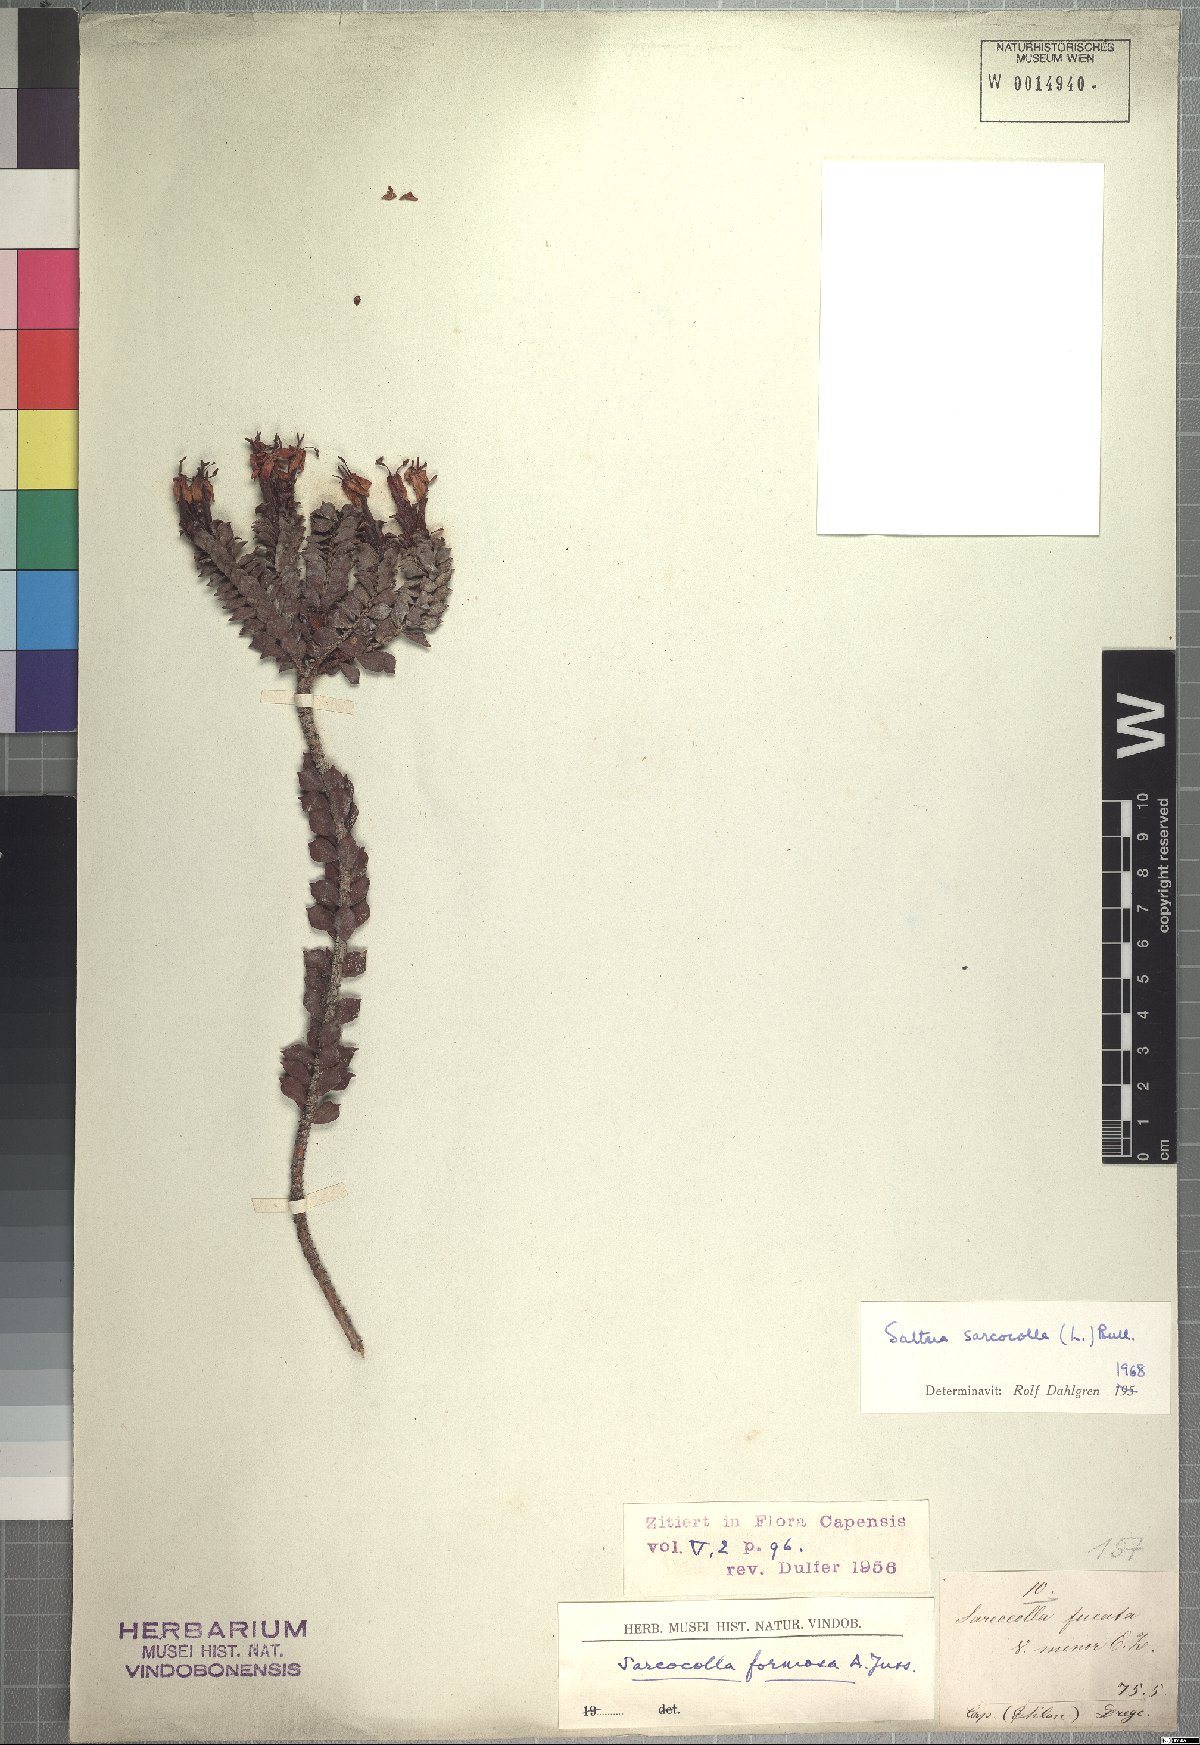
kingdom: Plantae
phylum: Tracheophyta
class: Magnoliopsida
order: Myrtales
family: Penaeaceae
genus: Saltera
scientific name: Saltera sarcocolla
